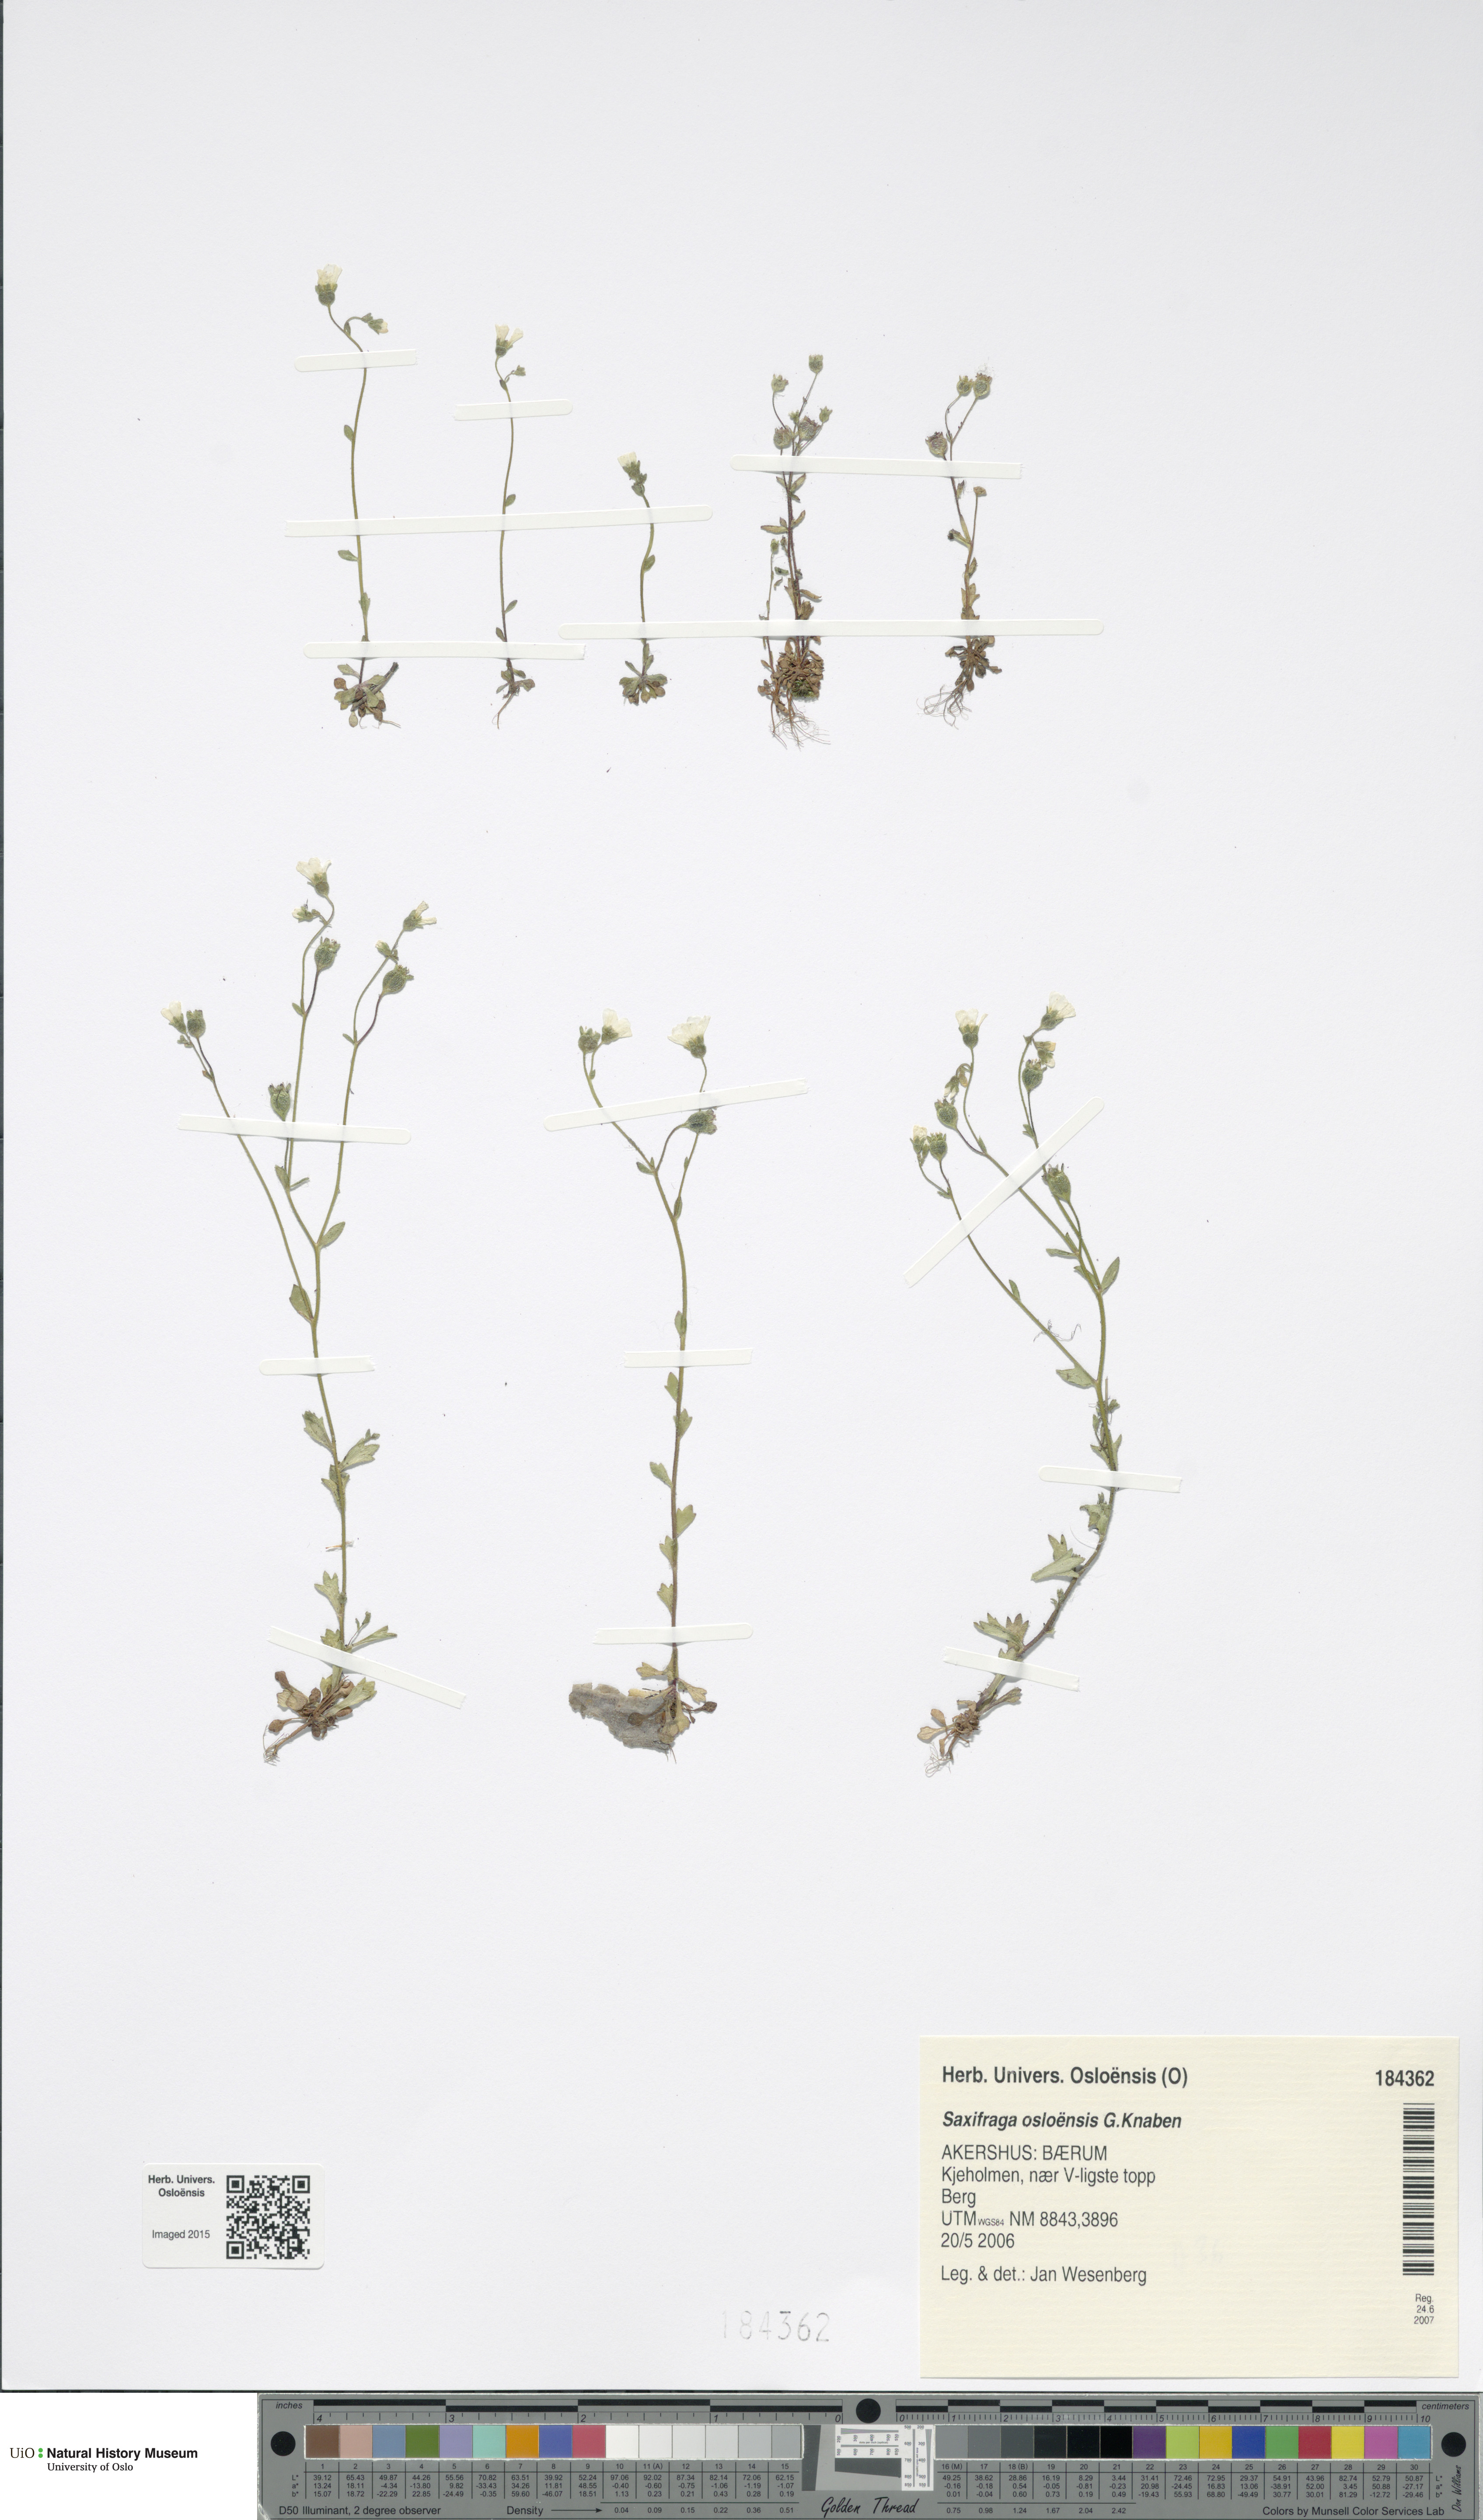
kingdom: Plantae
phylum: Tracheophyta
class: Magnoliopsida
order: Saxifragales
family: Saxifragaceae
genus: Saxifraga
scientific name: Saxifraga osloensis
